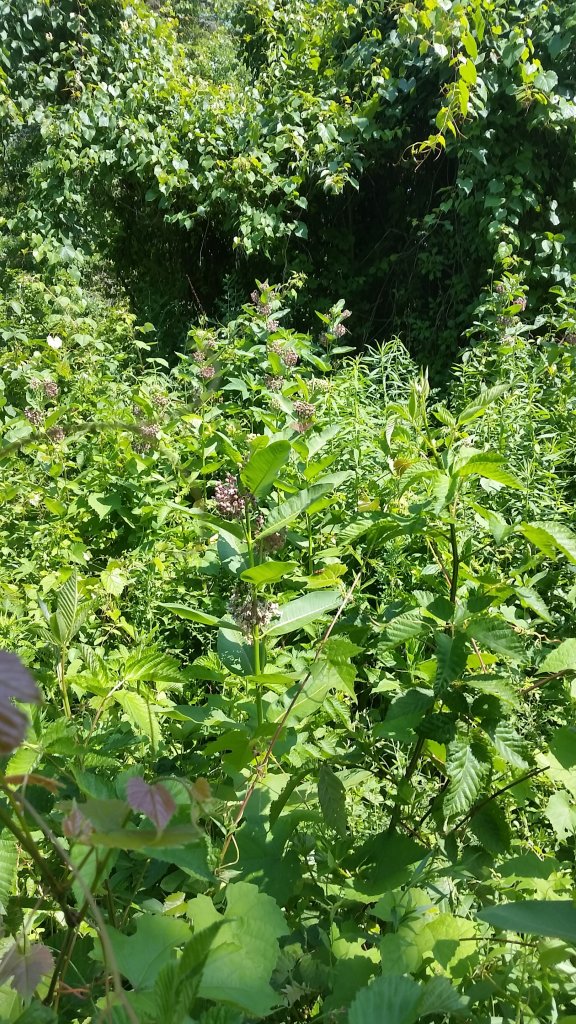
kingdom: Animalia
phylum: Arthropoda
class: Insecta
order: Lepidoptera
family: Hesperiidae
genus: Epargyreus
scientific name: Epargyreus clarus
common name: Silver-spotted Skipper
